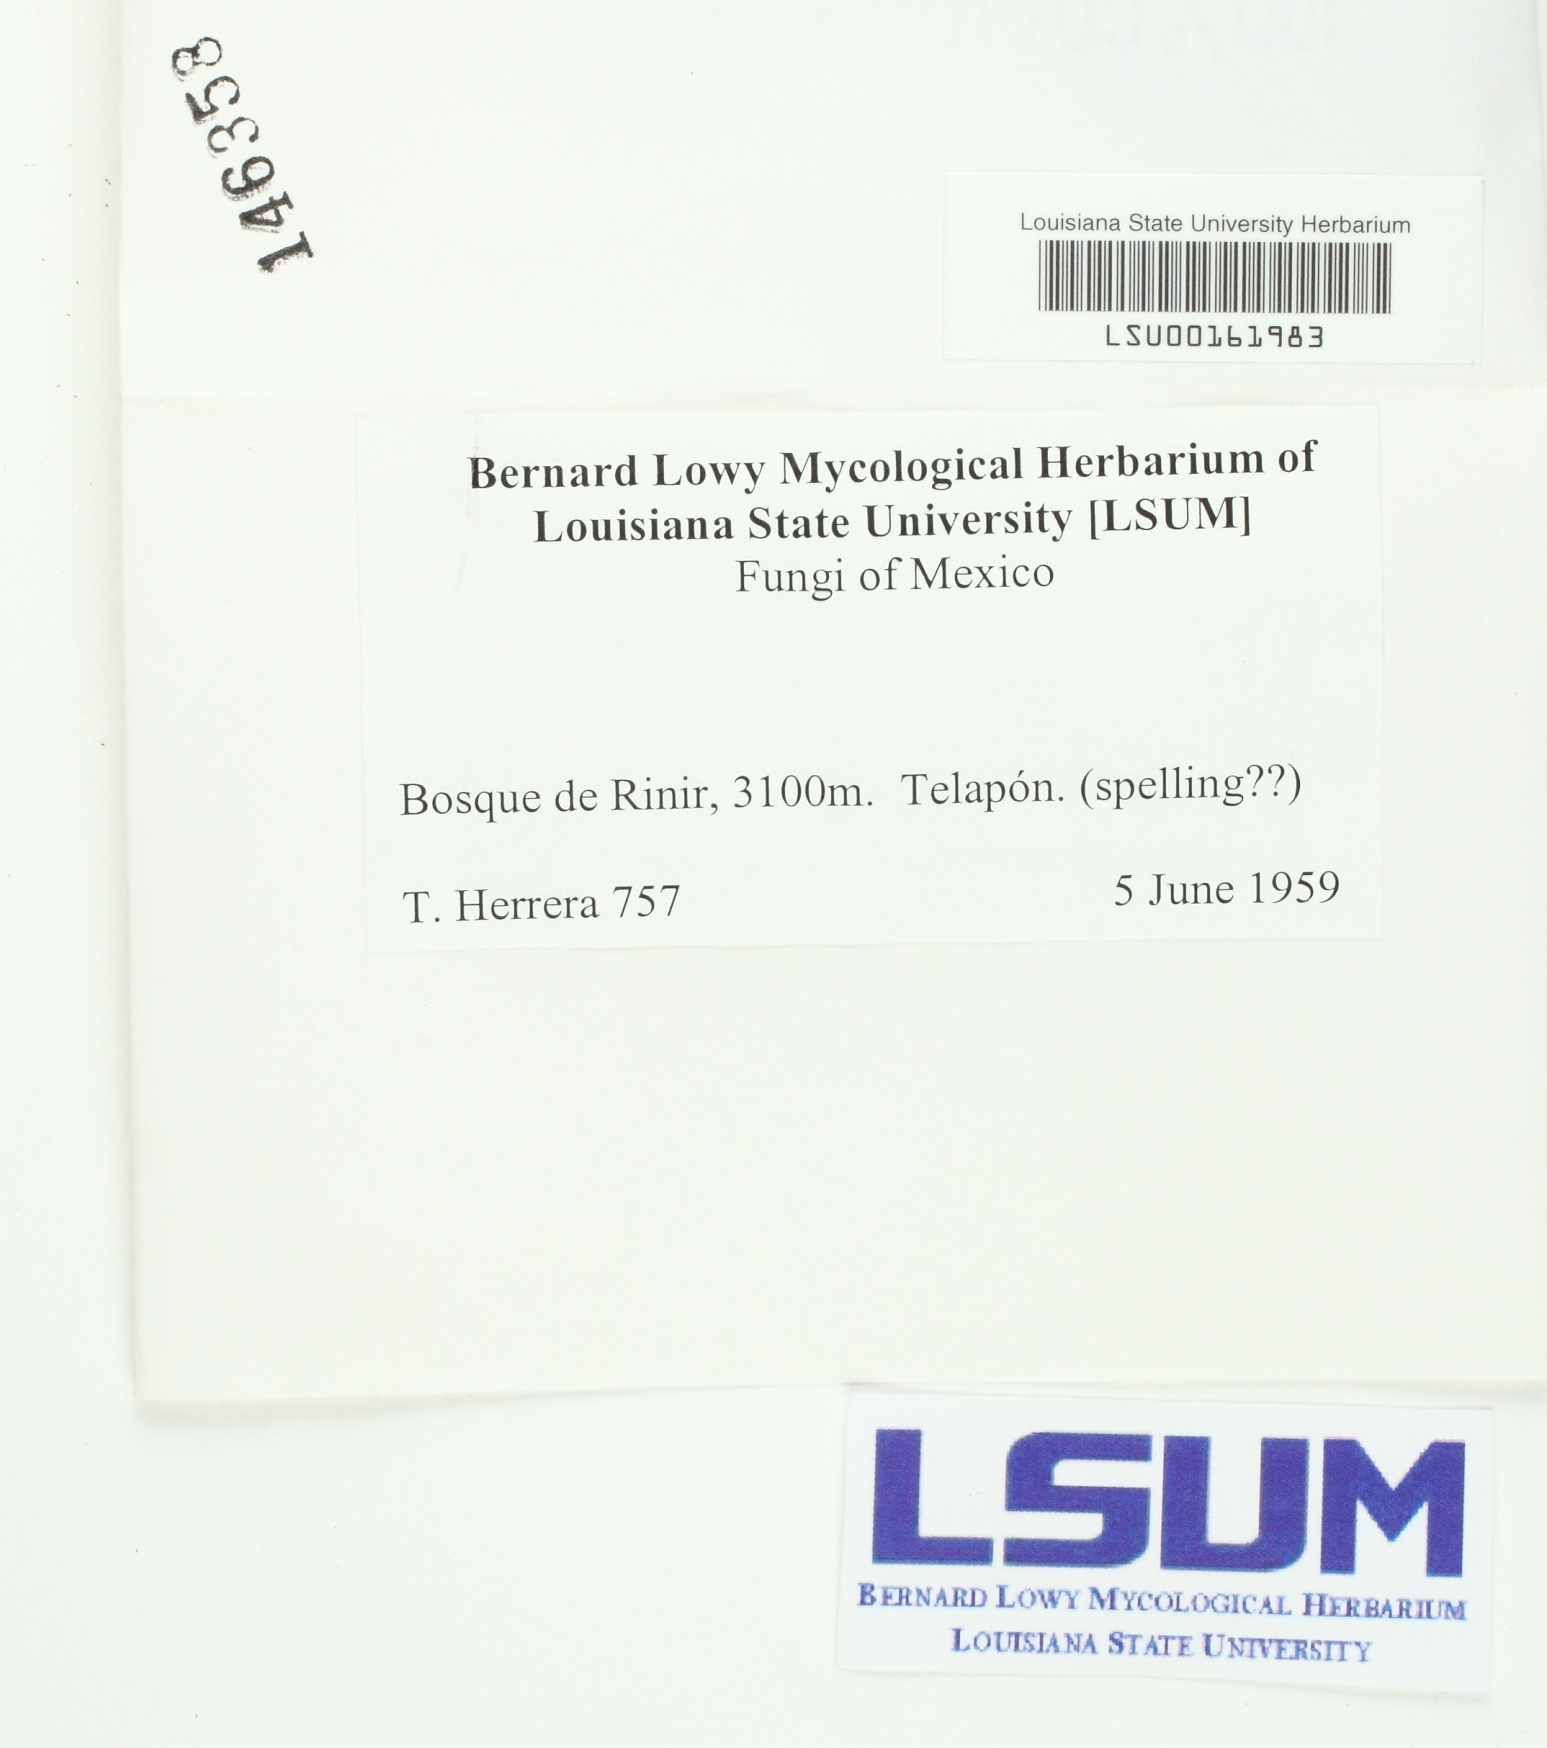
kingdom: Fungi
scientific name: Fungi
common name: Fungi
